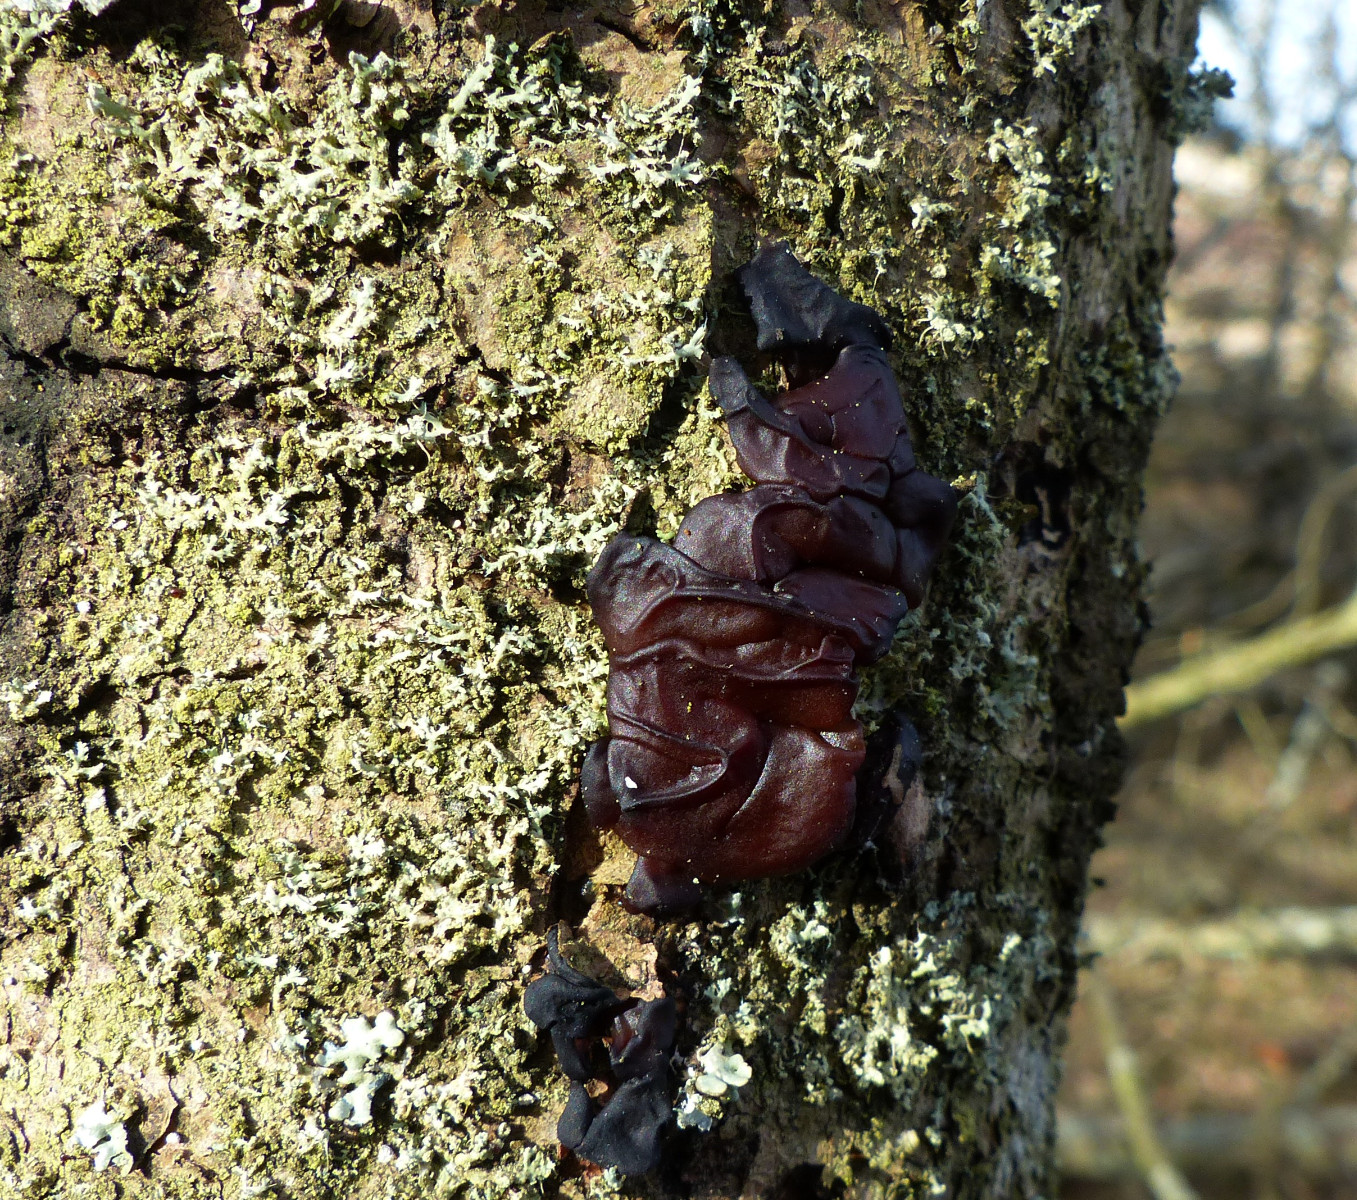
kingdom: Fungi
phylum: Basidiomycota
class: Agaricomycetes
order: Auriculariales
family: Auriculariaceae
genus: Exidia
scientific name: Exidia saccharina
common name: kandis-bævretop
